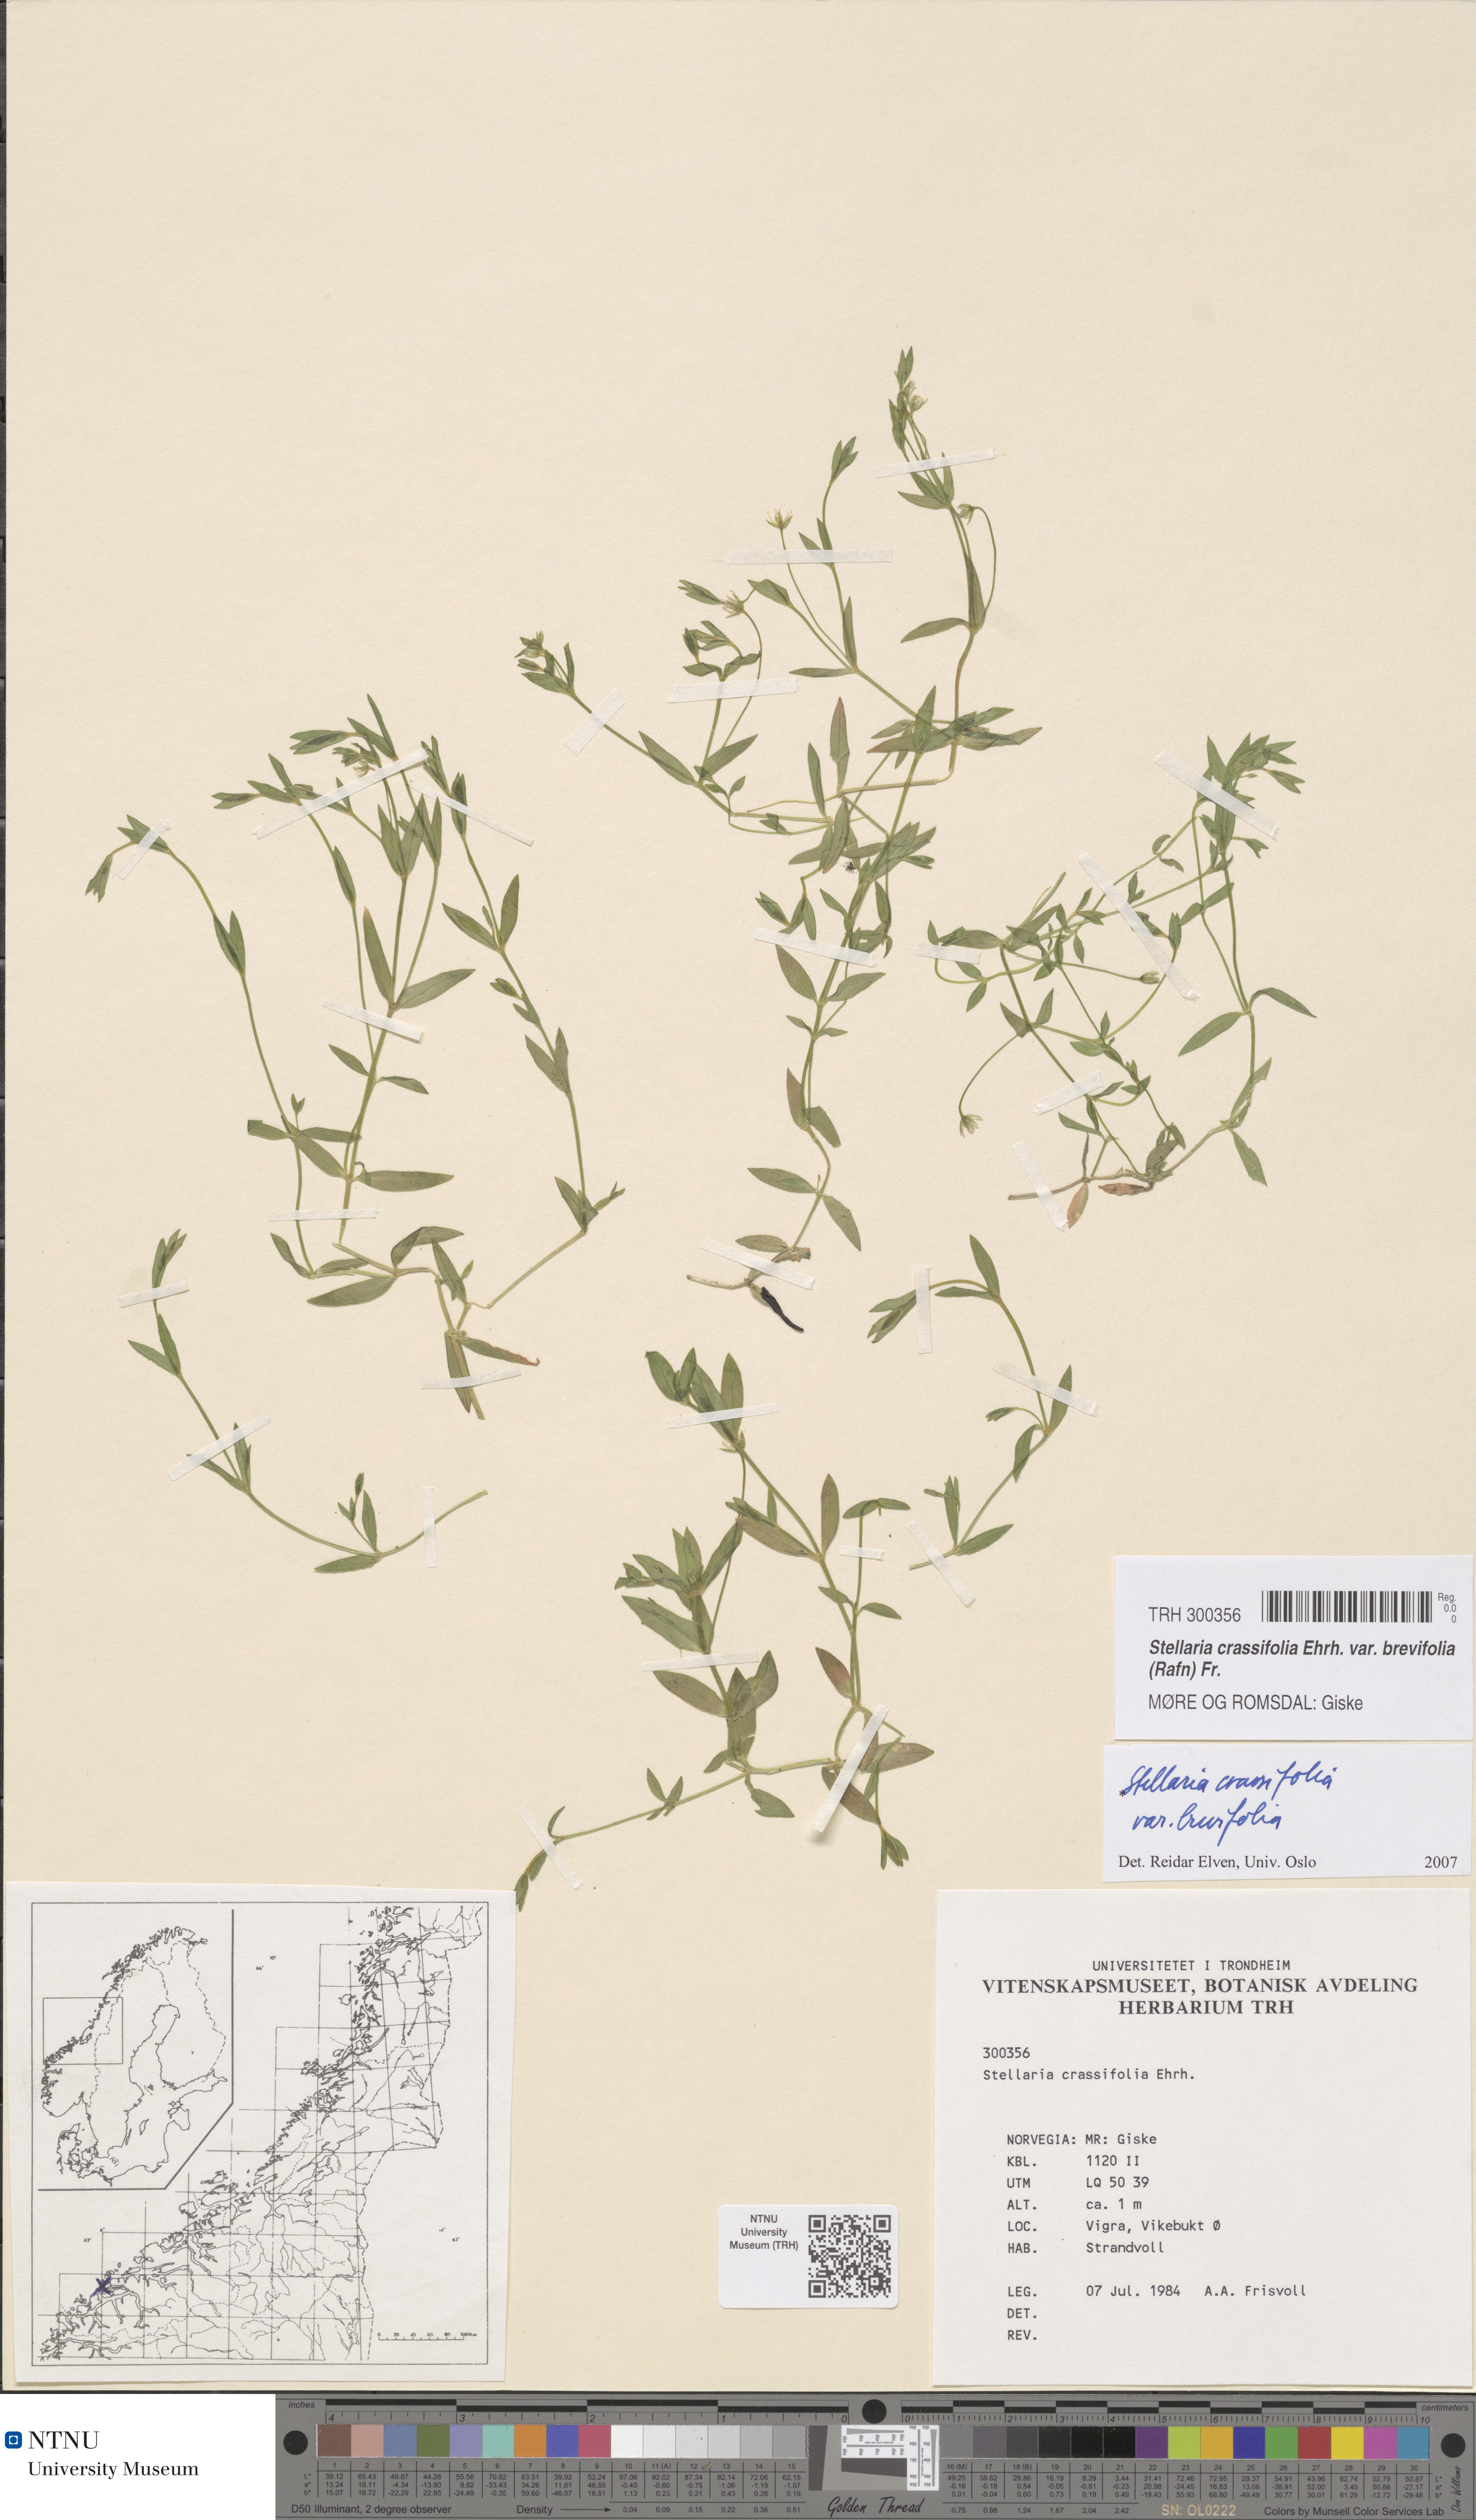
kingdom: Plantae
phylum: Tracheophyta
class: Magnoliopsida
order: Caryophyllales
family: Caryophyllaceae
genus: Stellaria
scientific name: Stellaria crassifolia
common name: Fleshy starwort
